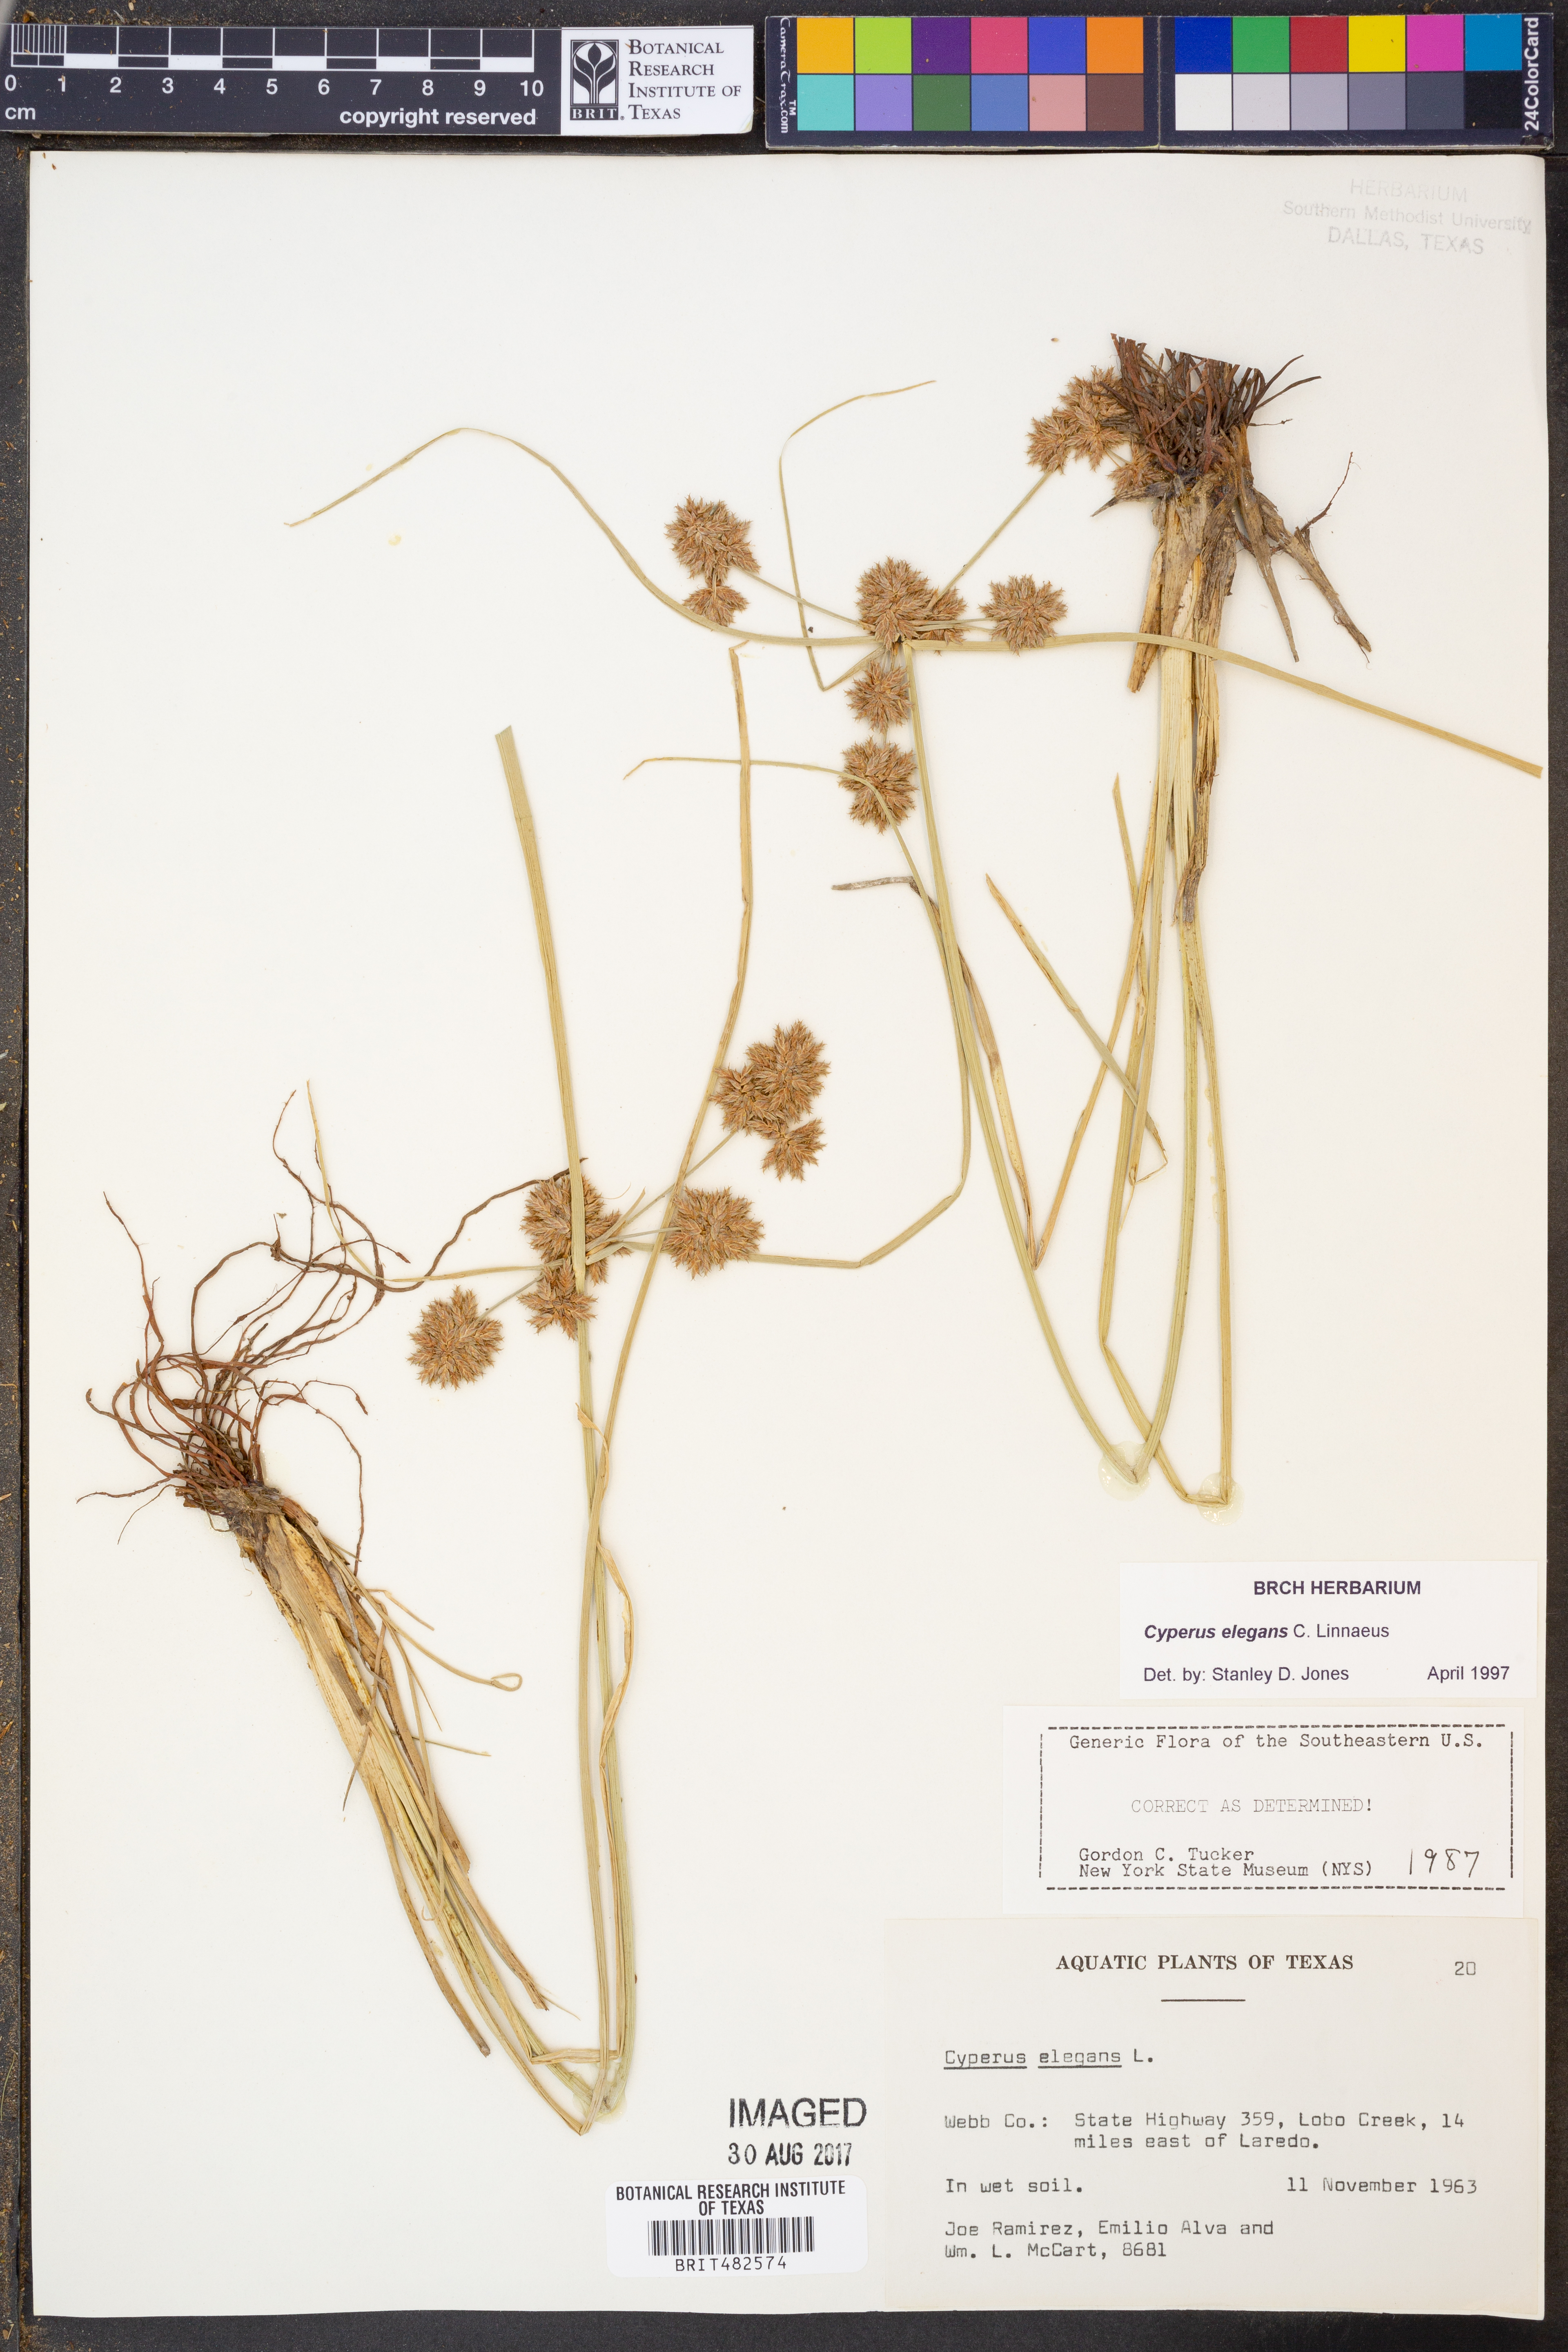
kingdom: Plantae
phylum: Tracheophyta
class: Liliopsida
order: Poales
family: Cyperaceae
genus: Cyperus
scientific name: Cyperus elegans
